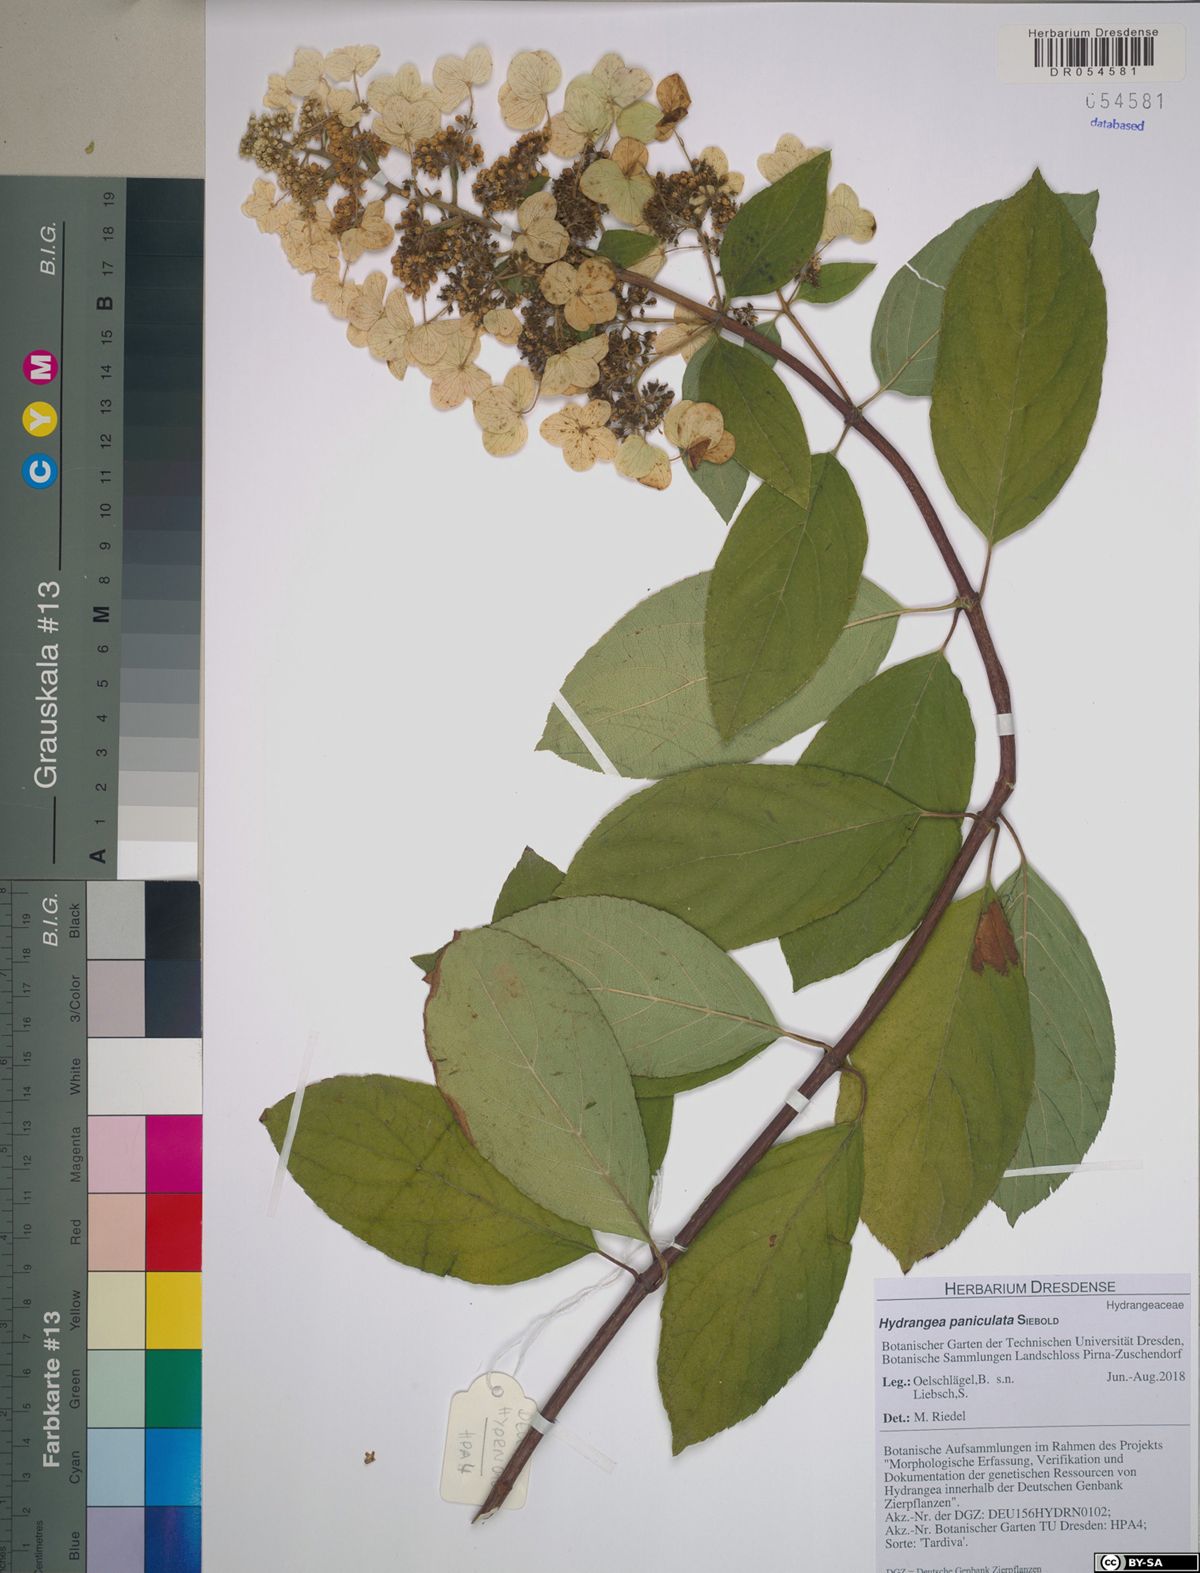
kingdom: Plantae
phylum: Tracheophyta
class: Magnoliopsida
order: Cornales
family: Hydrangeaceae
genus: Hydrangea
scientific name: Hydrangea paniculata
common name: Panicled hydrangea
